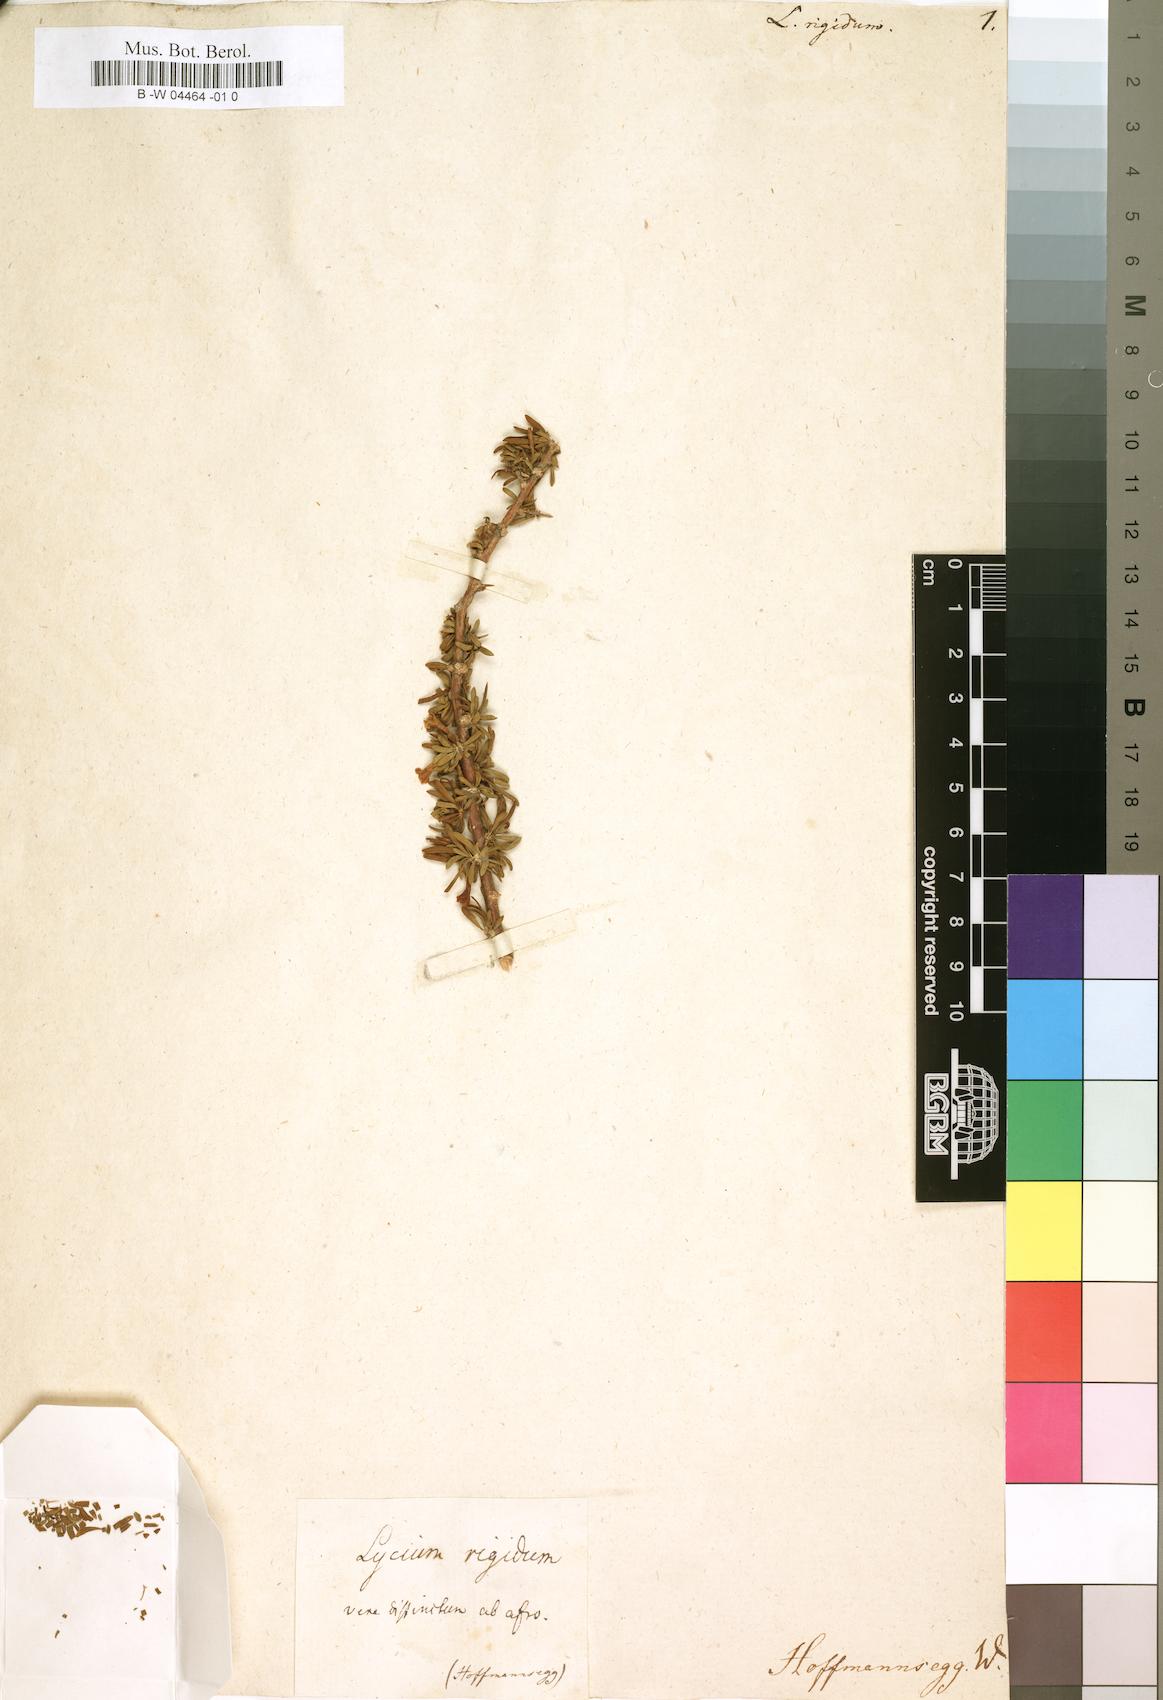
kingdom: Plantae
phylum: Tracheophyta
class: Magnoliopsida
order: Solanales
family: Solanaceae
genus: Lycium
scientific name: Lycium rigidum
